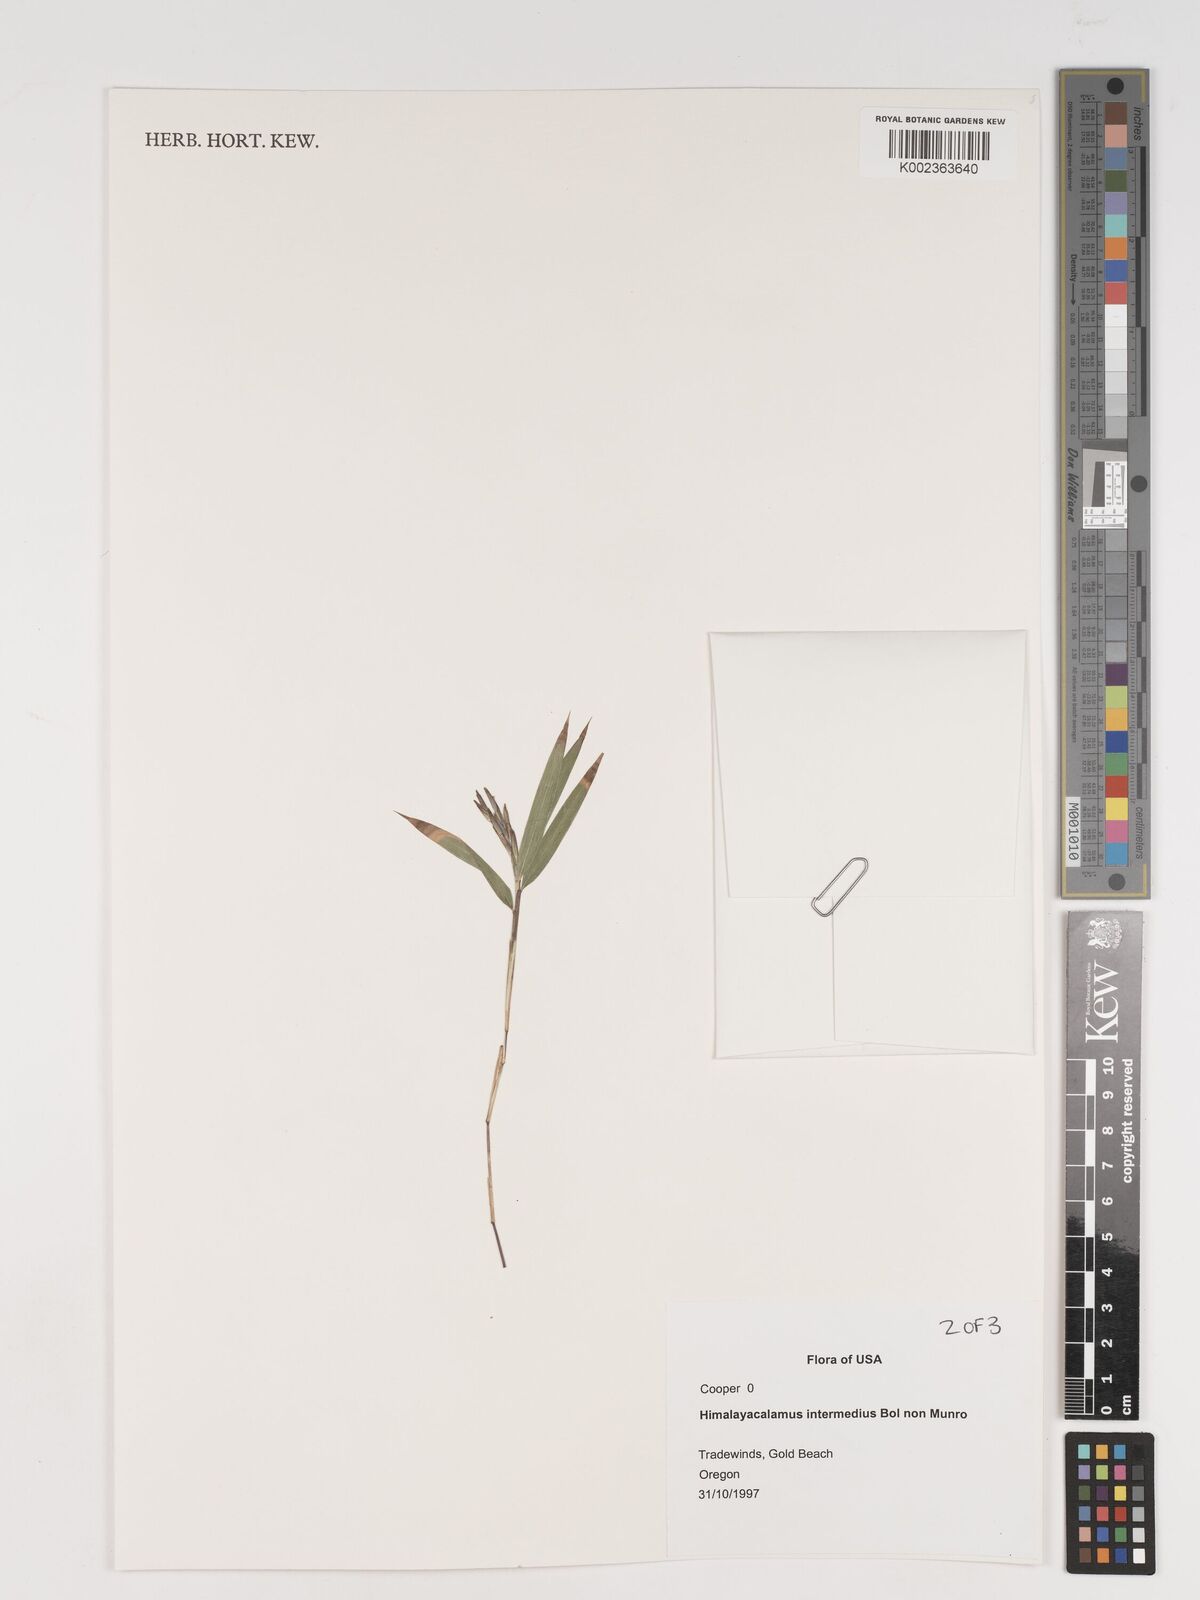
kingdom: Plantae
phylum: Tracheophyta
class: Liliopsida
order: Poales
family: Poaceae
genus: Himalayacalamus
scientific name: Himalayacalamus
